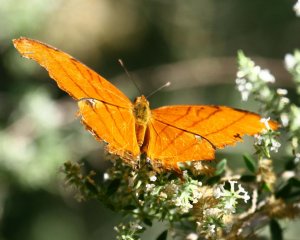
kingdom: Animalia
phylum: Arthropoda
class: Insecta
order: Lepidoptera
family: Nymphalidae
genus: Marpesia
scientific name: Marpesia petreus
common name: Ruddy Daggerwing
